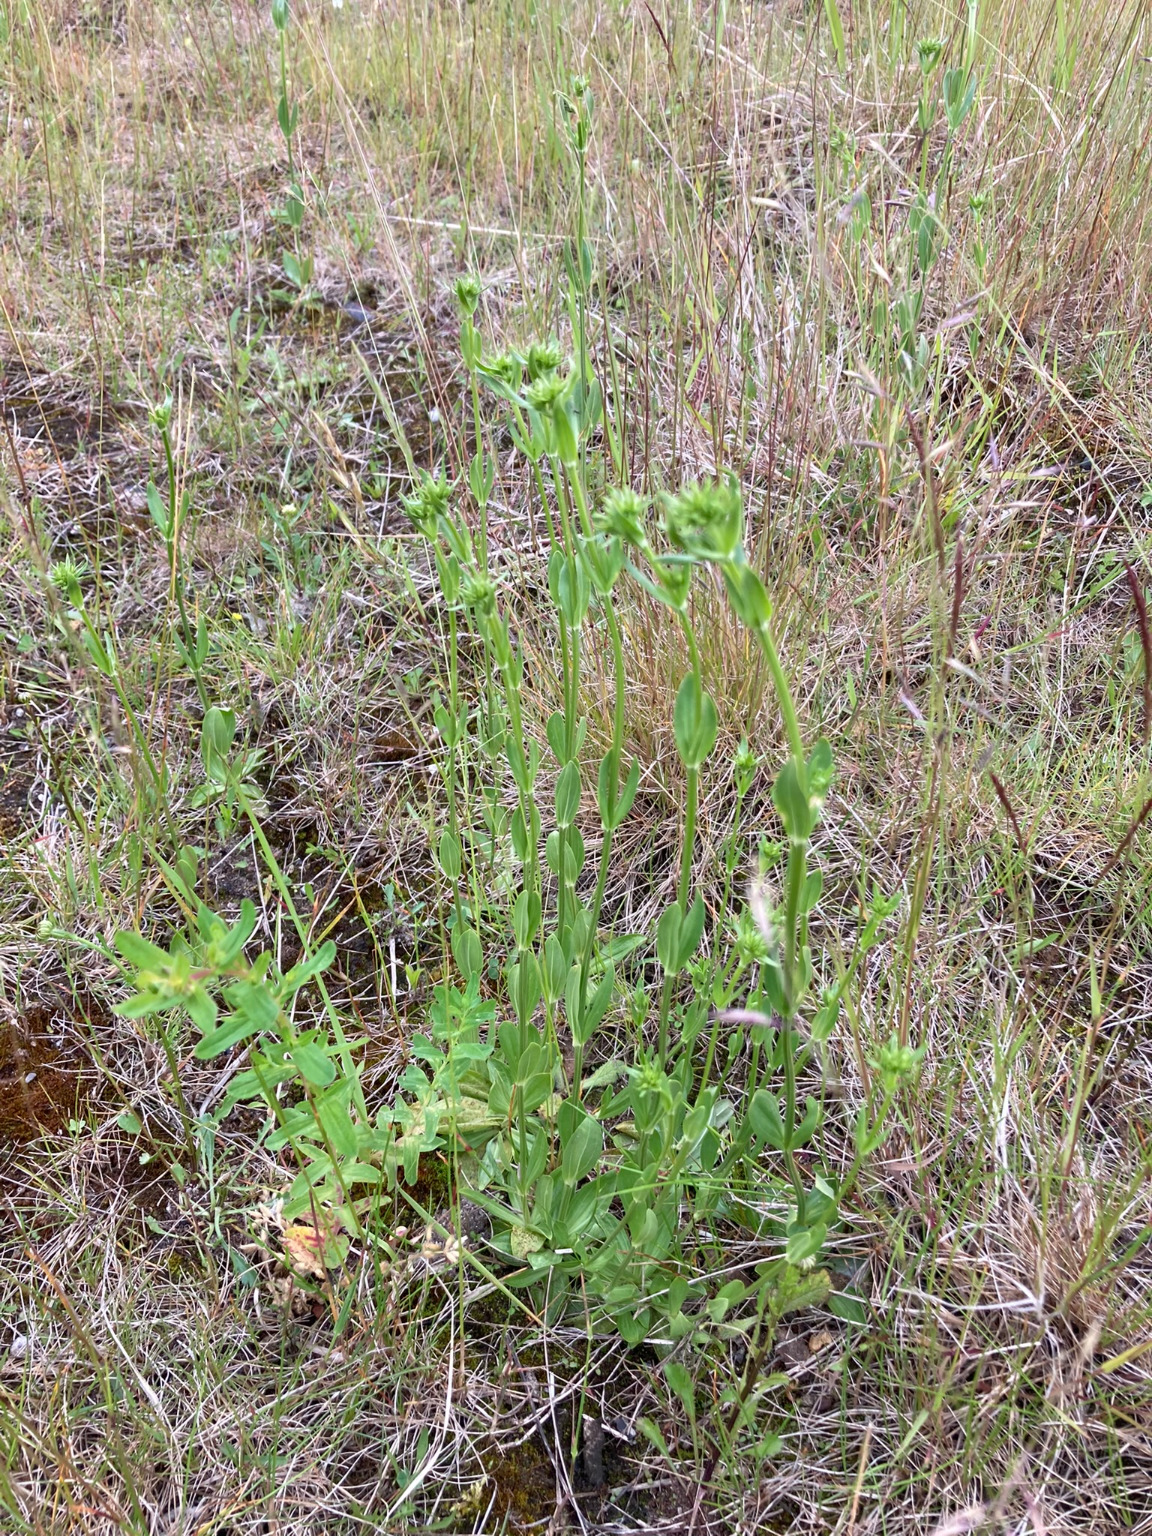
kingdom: Plantae
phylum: Tracheophyta
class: Magnoliopsida
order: Gentianales
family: Gentianaceae
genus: Centaurium
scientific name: Centaurium erythraea
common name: Mark-tusindgylden
